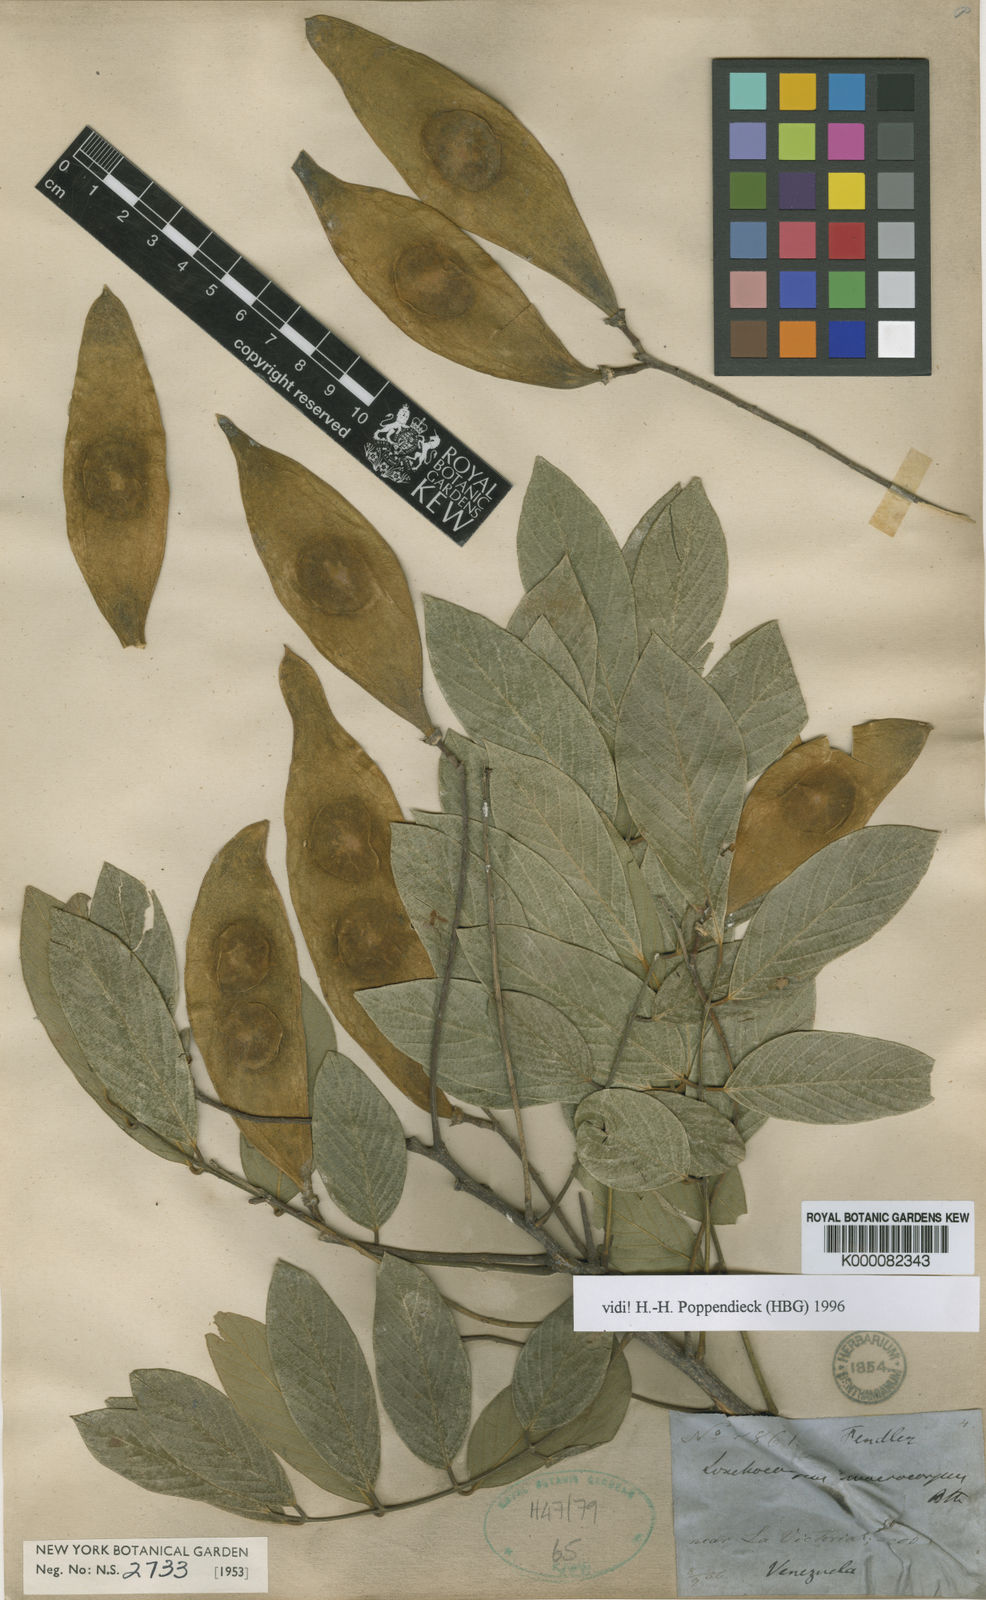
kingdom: Plantae
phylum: Tracheophyta
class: Magnoliopsida
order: Fabales
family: Fabaceae
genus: Lonchocarpus
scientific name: Lonchocarpus macrocarpus
